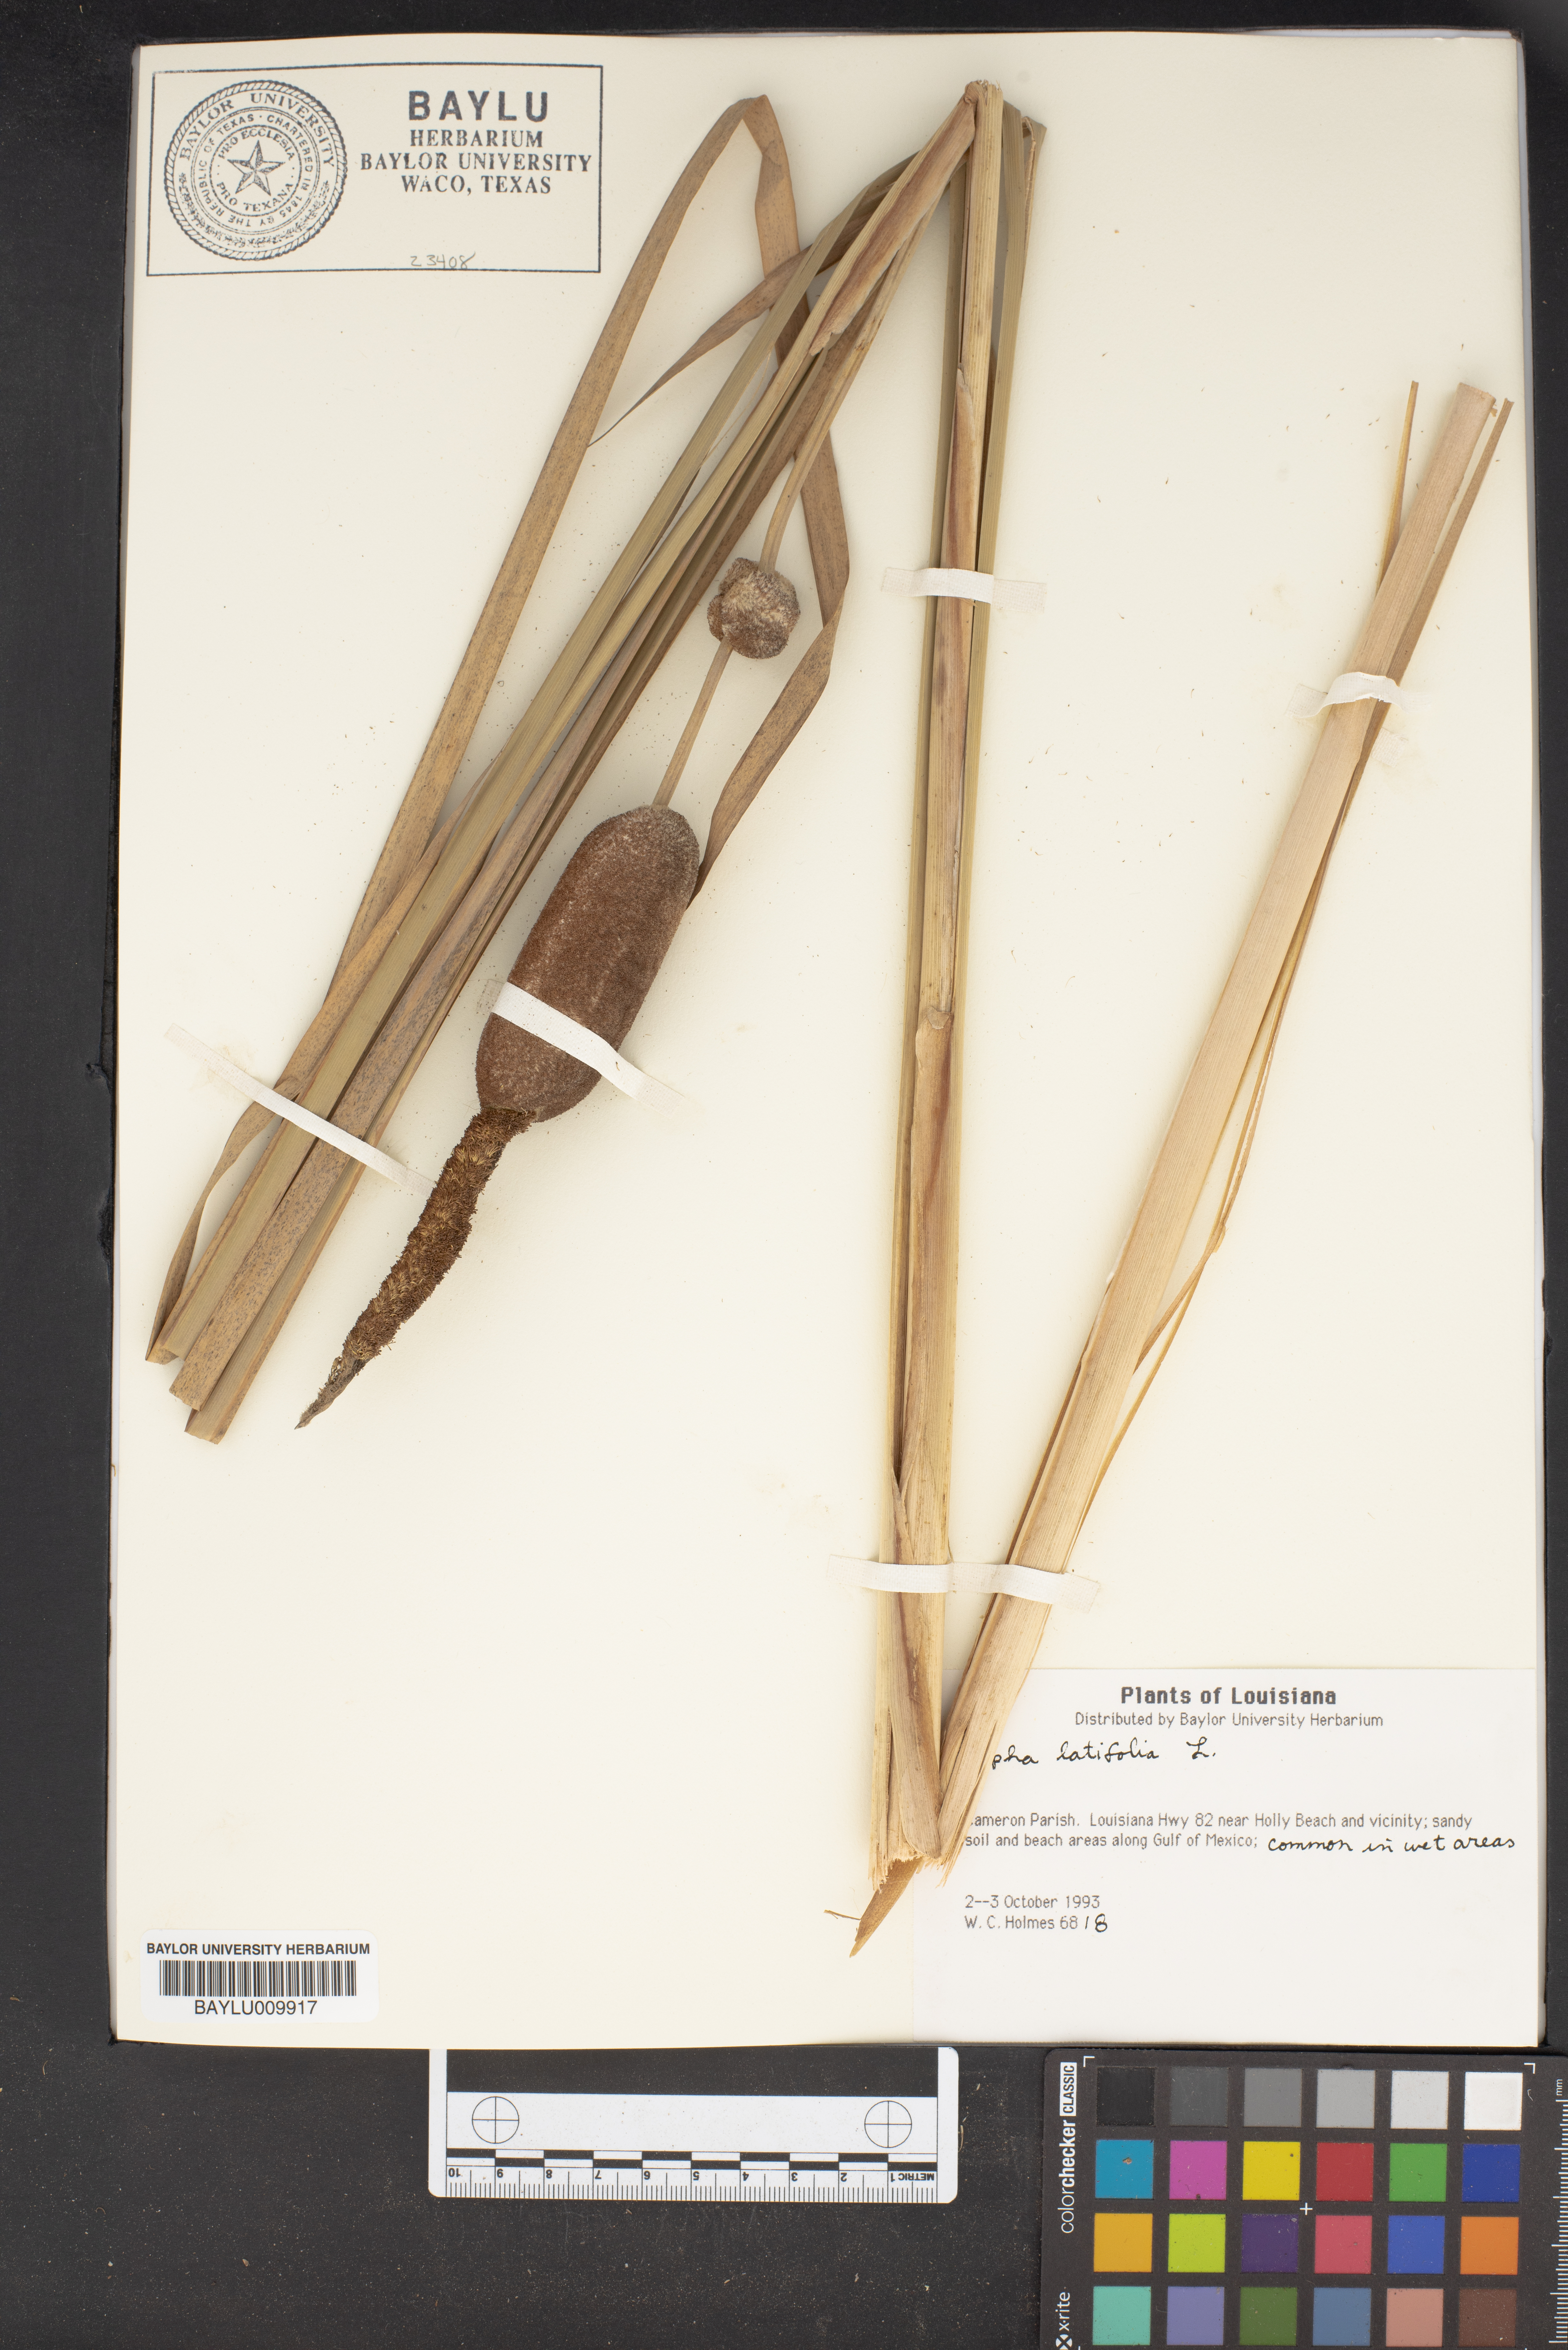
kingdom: Plantae
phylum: Tracheophyta
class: Liliopsida
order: Poales
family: Typhaceae
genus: Typha
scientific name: Typha latifolia
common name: Broadleaf cattail
